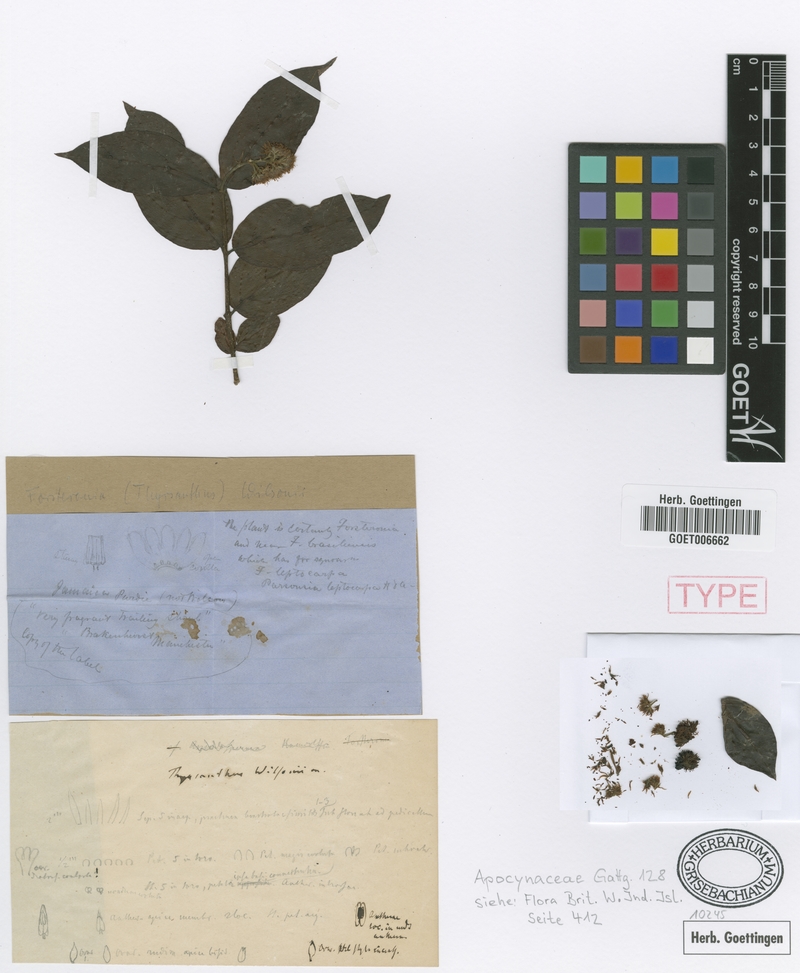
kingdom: Plantae
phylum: Tracheophyta
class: Magnoliopsida
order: Gentianales
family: Apocynaceae
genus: Forsteronia
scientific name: Forsteronia wilsonii
